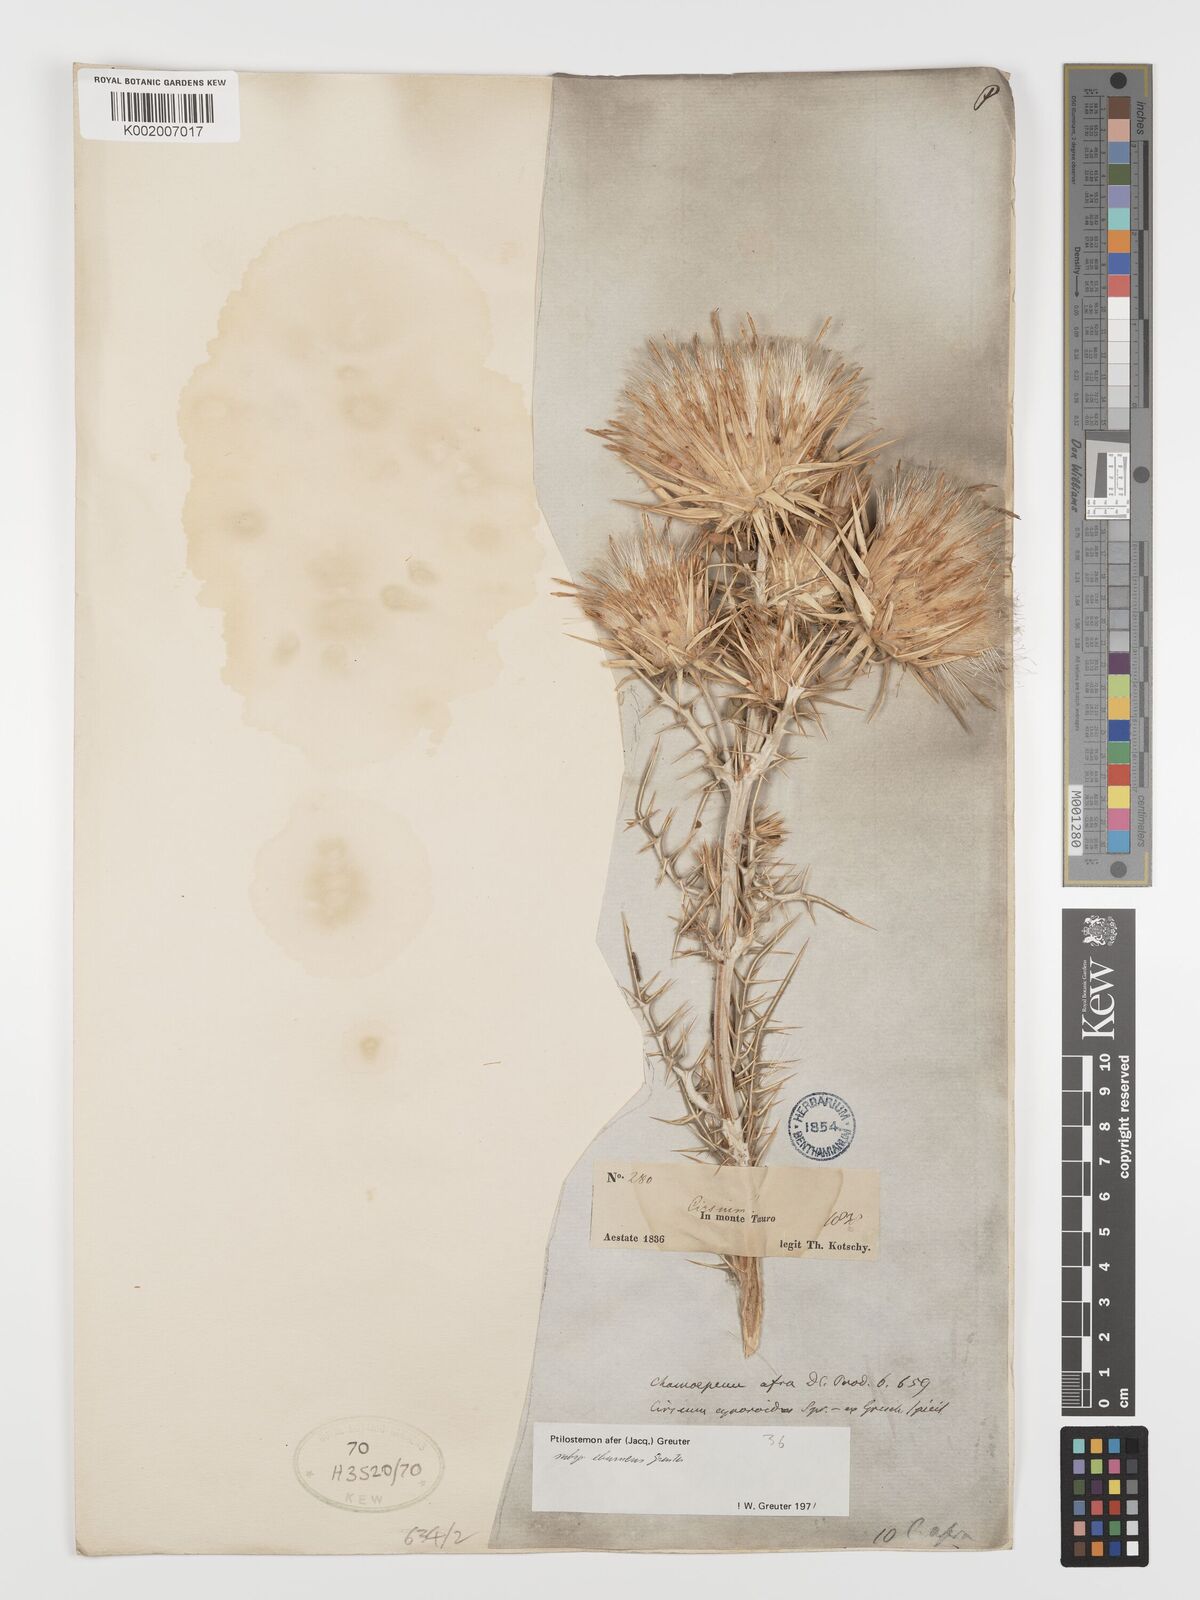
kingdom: Plantae
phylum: Tracheophyta
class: Magnoliopsida
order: Asterales
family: Asteraceae
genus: Ptilostemon
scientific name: Ptilostemon afer
